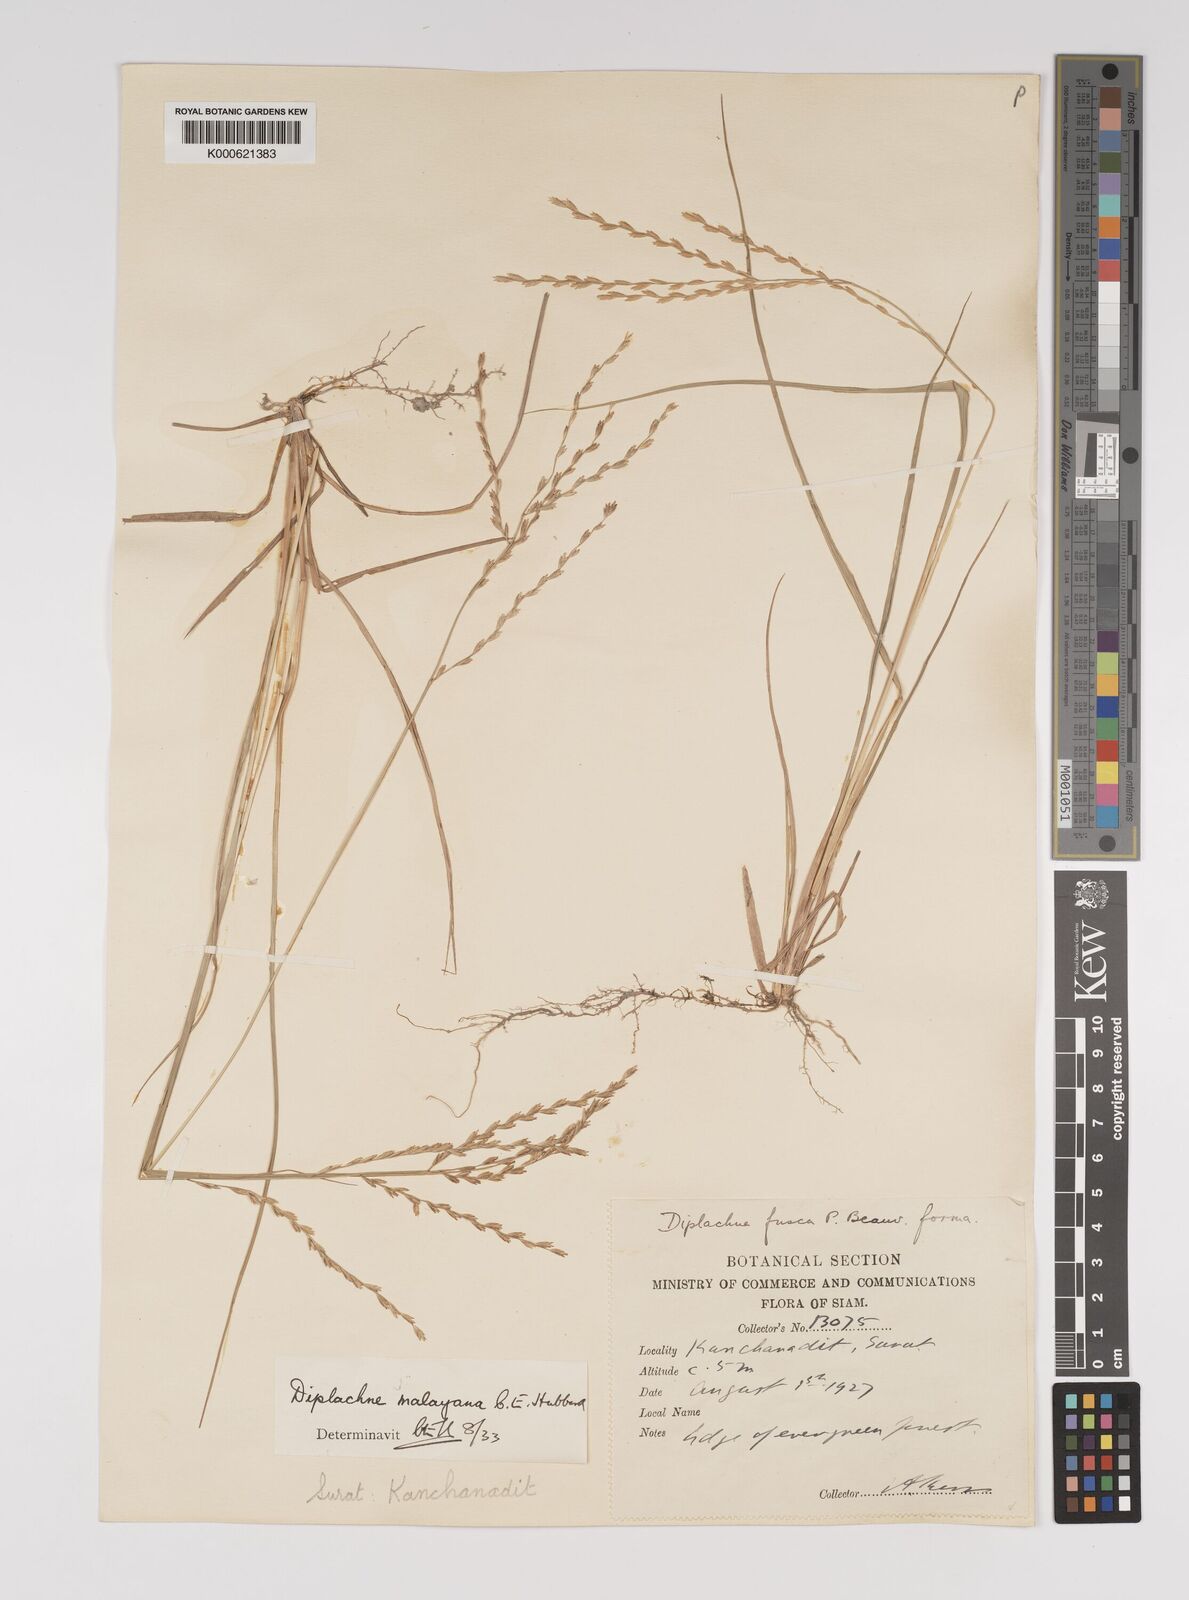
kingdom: Plantae
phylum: Tracheophyta
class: Liliopsida
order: Poales
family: Poaceae
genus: Leptochloa
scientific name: Leptochloa malayana
